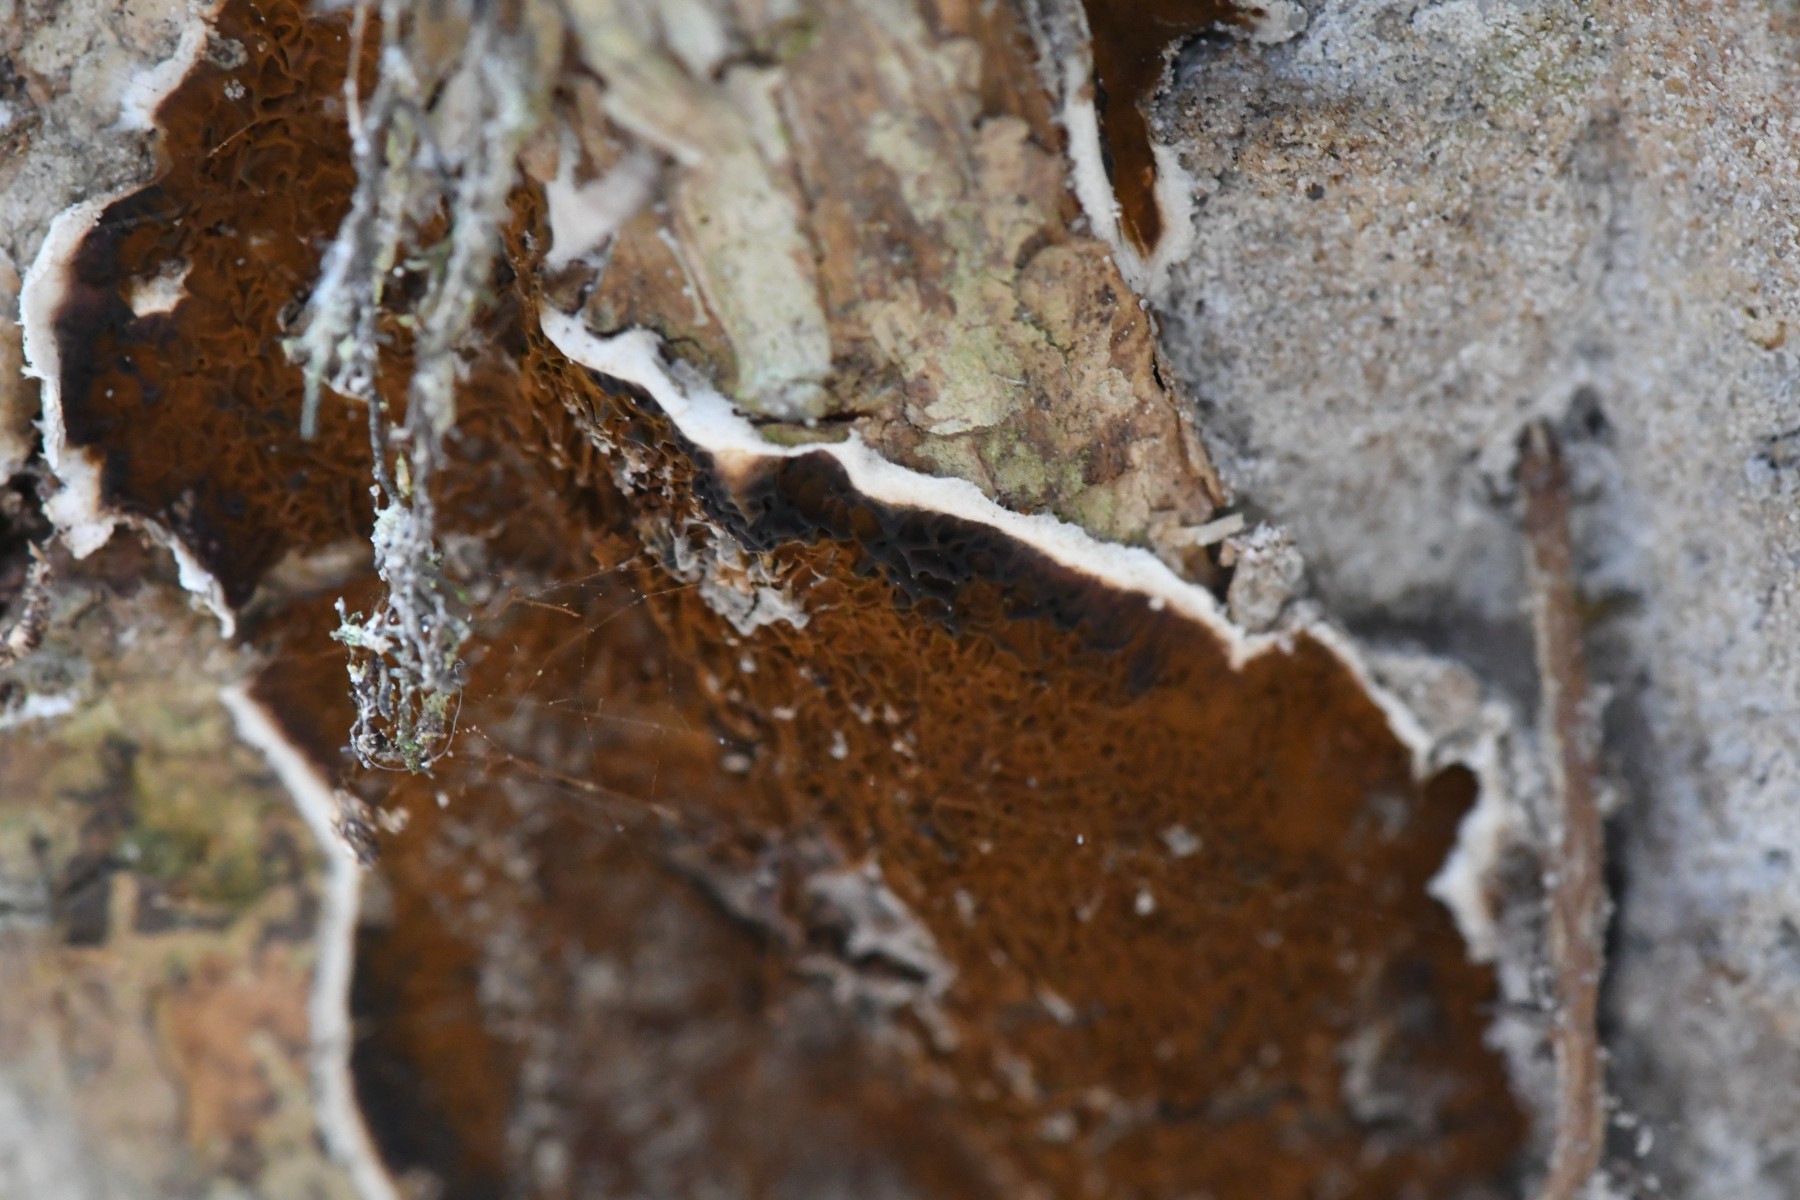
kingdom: Fungi
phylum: Basidiomycota
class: Agaricomycetes
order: Boletales
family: Serpulaceae
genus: Serpula
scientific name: Serpula himantioides
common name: tyndkødet hussvamp
